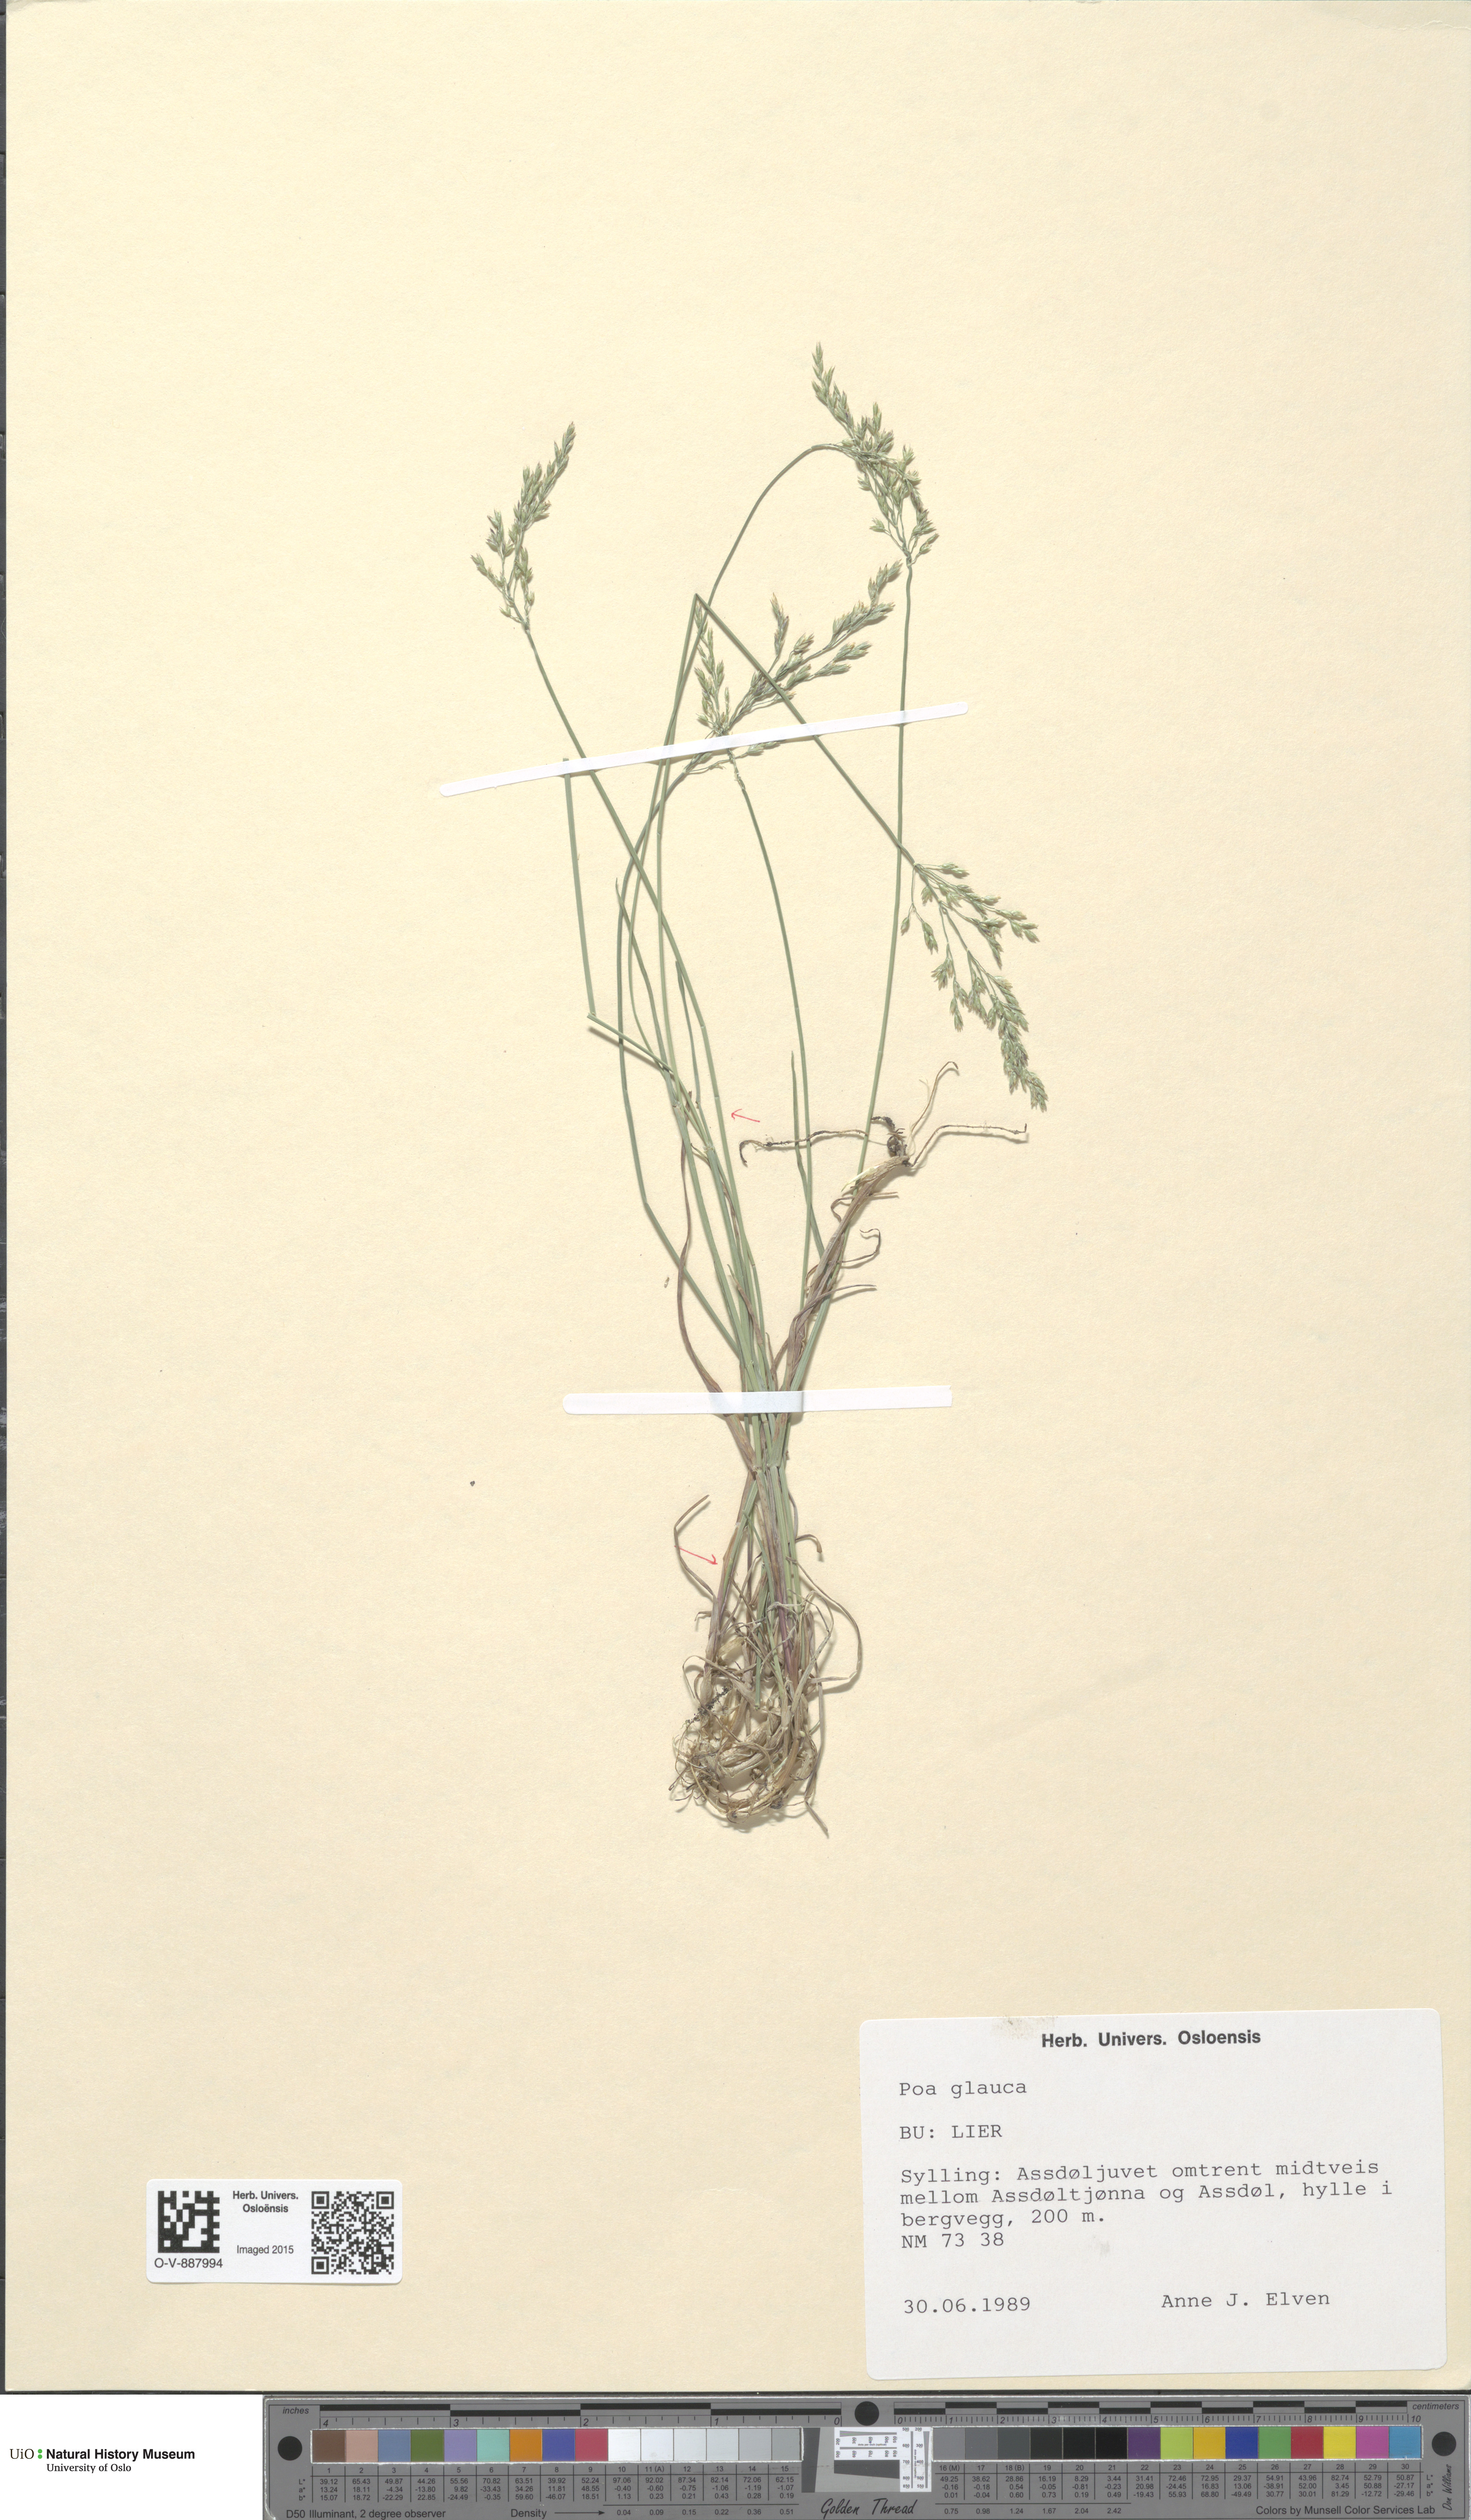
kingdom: Plantae
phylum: Tracheophyta
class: Liliopsida
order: Poales
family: Poaceae
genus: Poa
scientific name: Poa glauca
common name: Glaucous bluegrass
